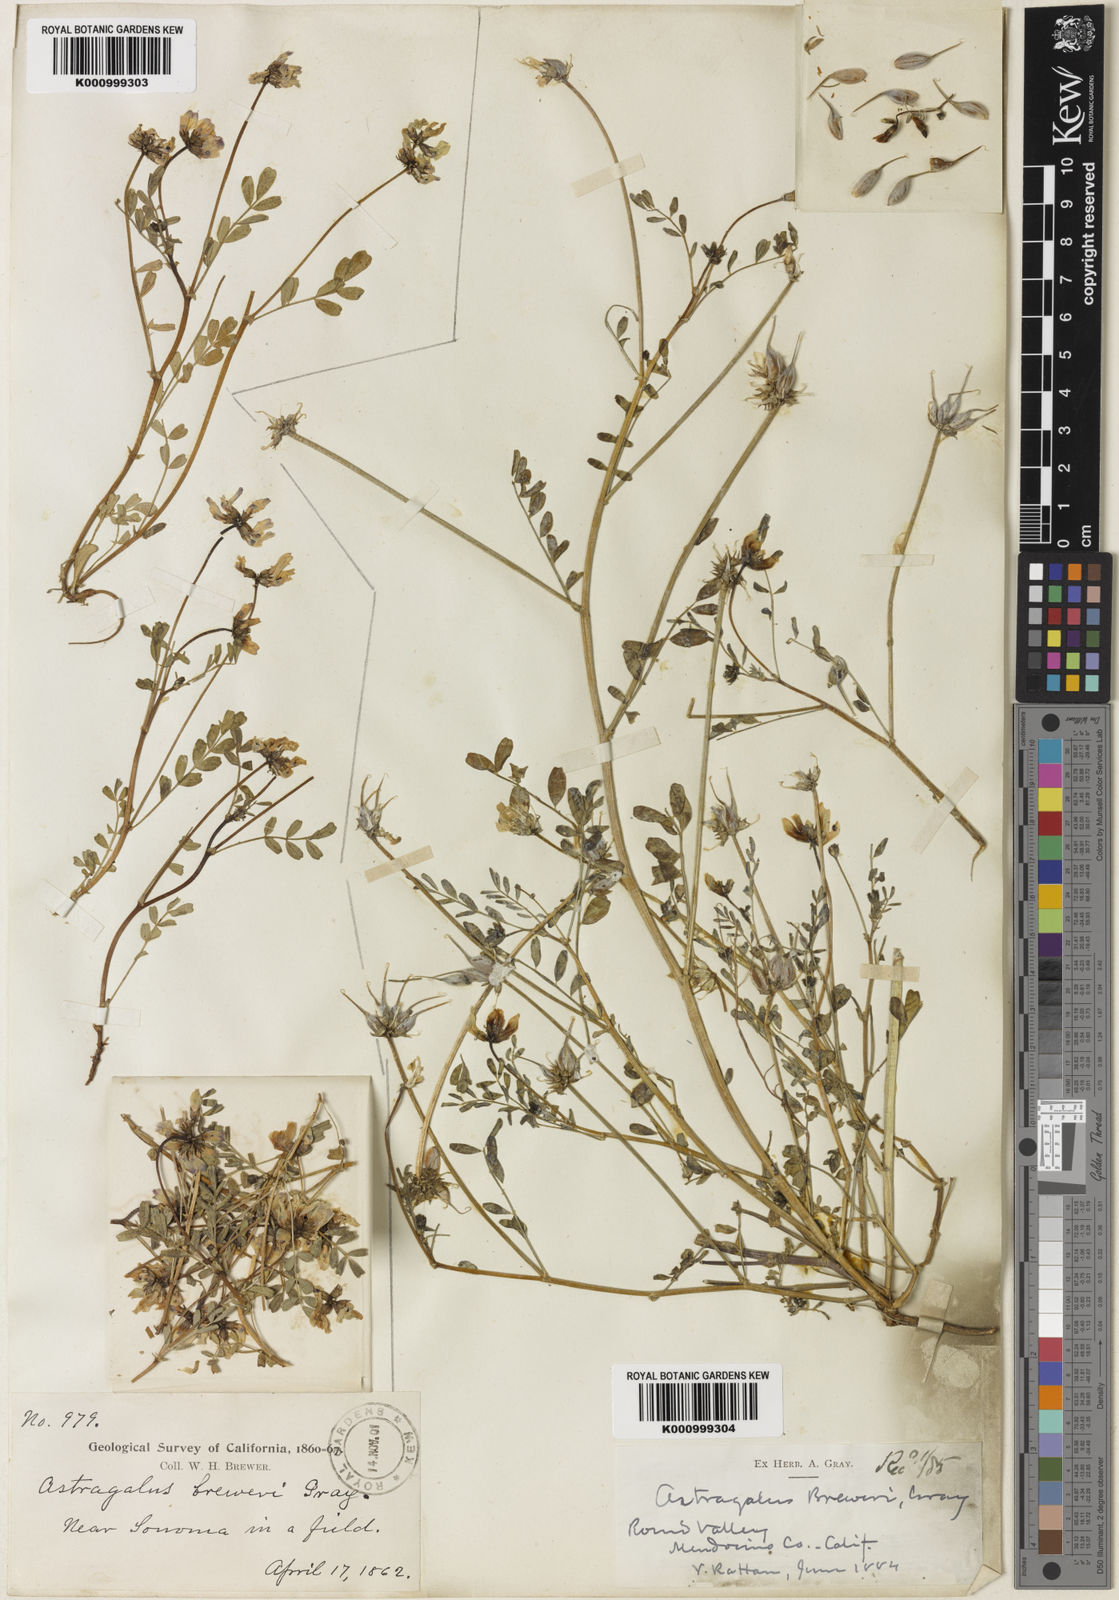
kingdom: Plantae
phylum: Tracheophyta
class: Magnoliopsida
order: Fabales
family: Fabaceae
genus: Astragalus
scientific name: Astragalus breweri
